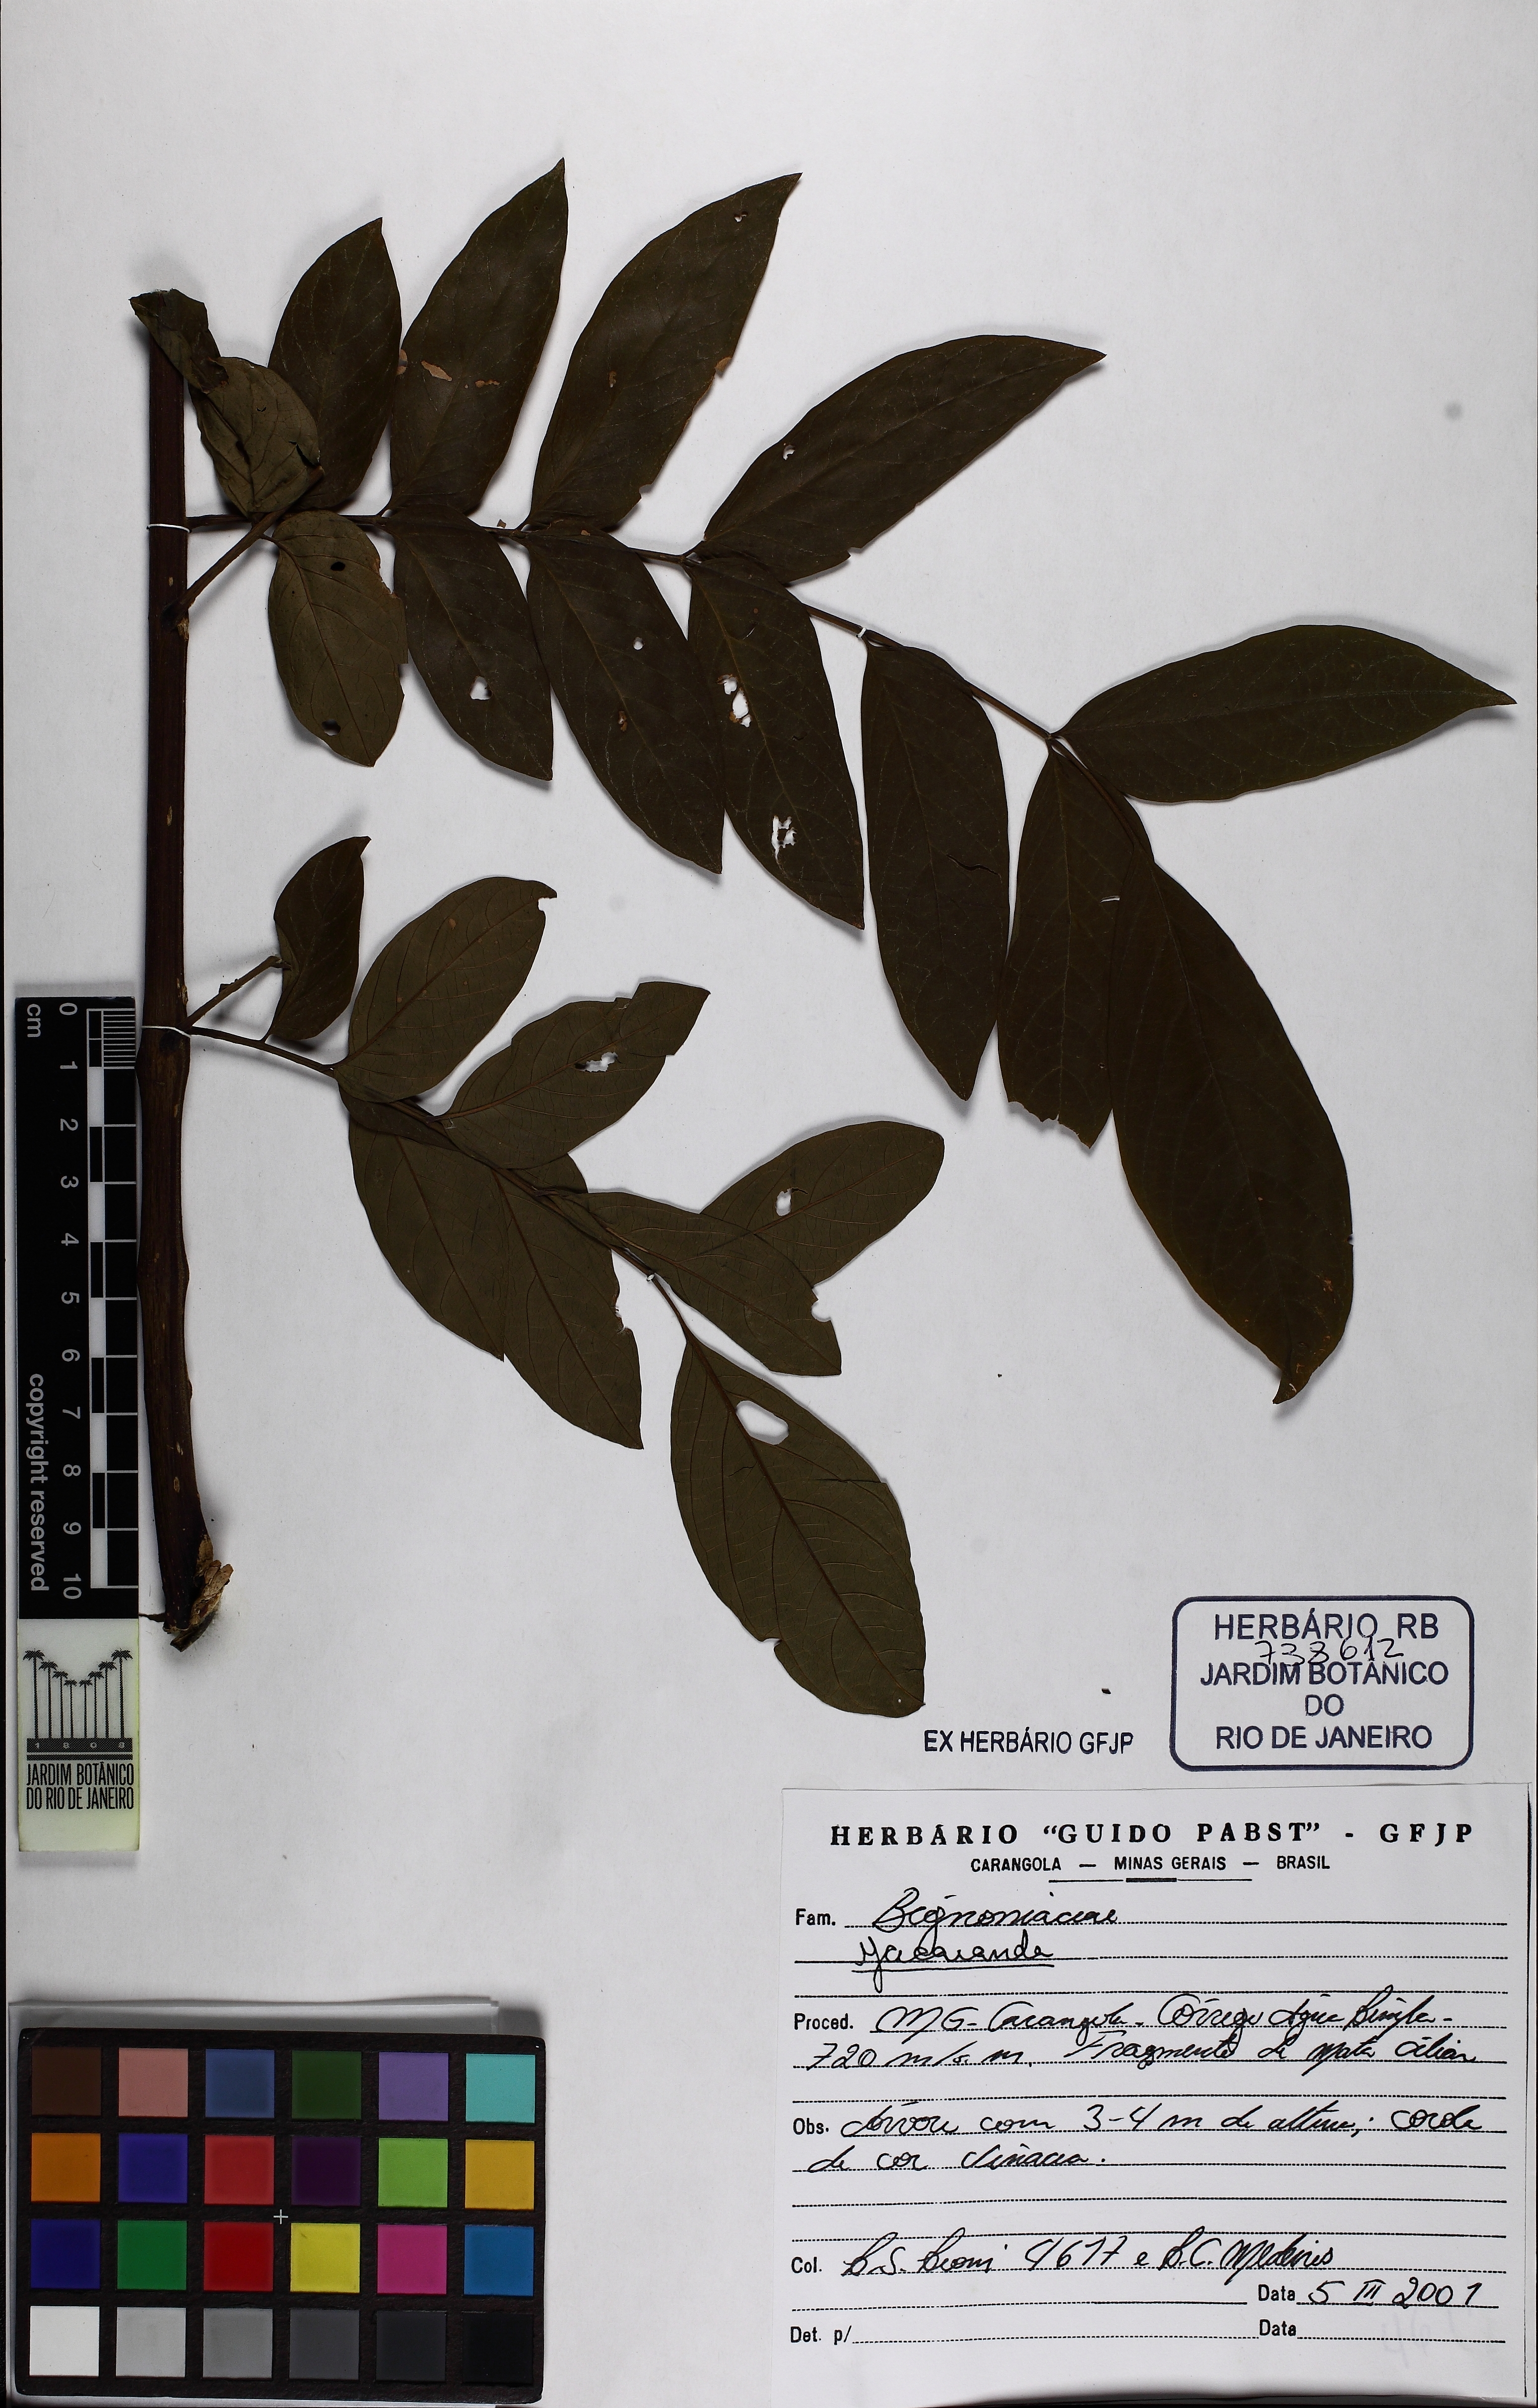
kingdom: Plantae
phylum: Tracheophyta
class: Magnoliopsida
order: Lamiales
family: Bignoniaceae
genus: Jacaranda
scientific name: Jacaranda
